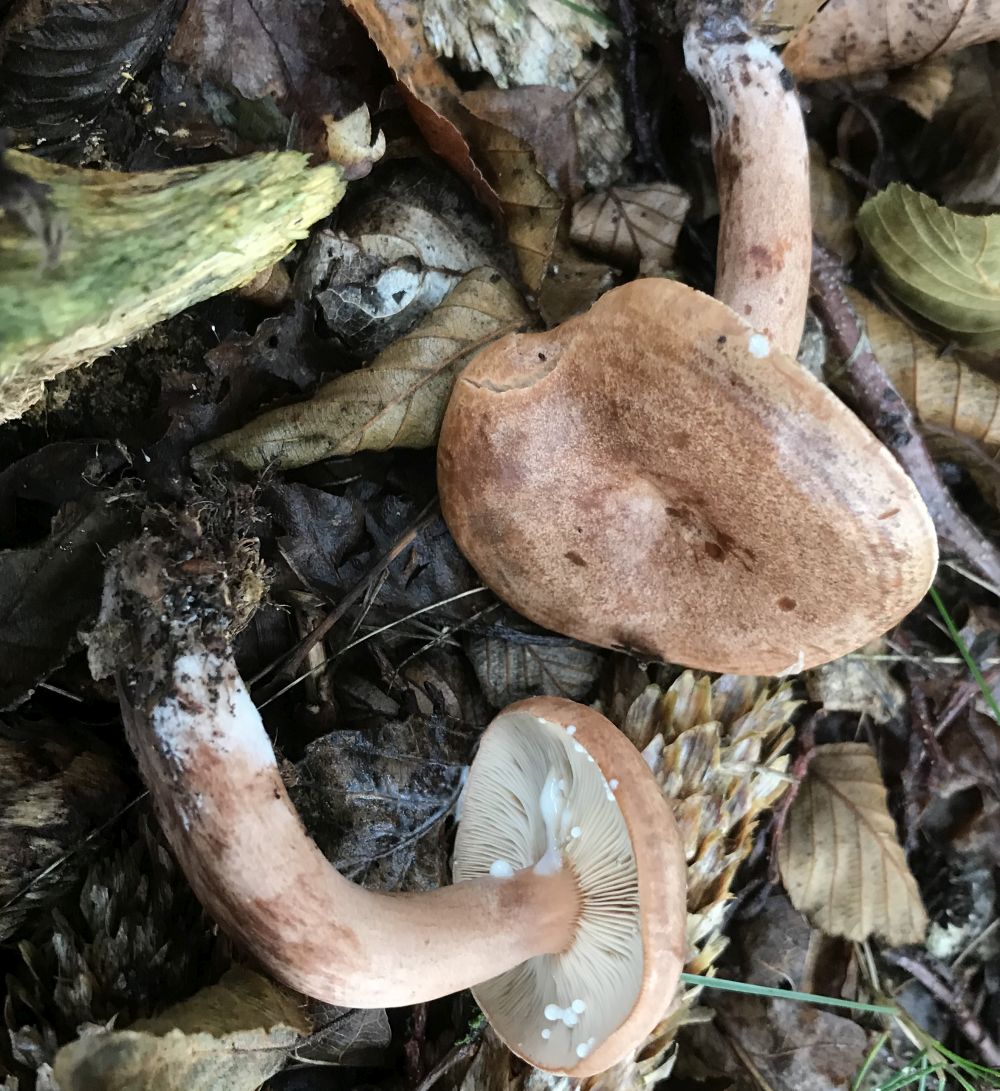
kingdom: Fungi
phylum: Basidiomycota
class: Agaricomycetes
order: Russulales
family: Russulaceae
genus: Lactarius
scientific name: Lactarius quietus
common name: ege-mælkehat
